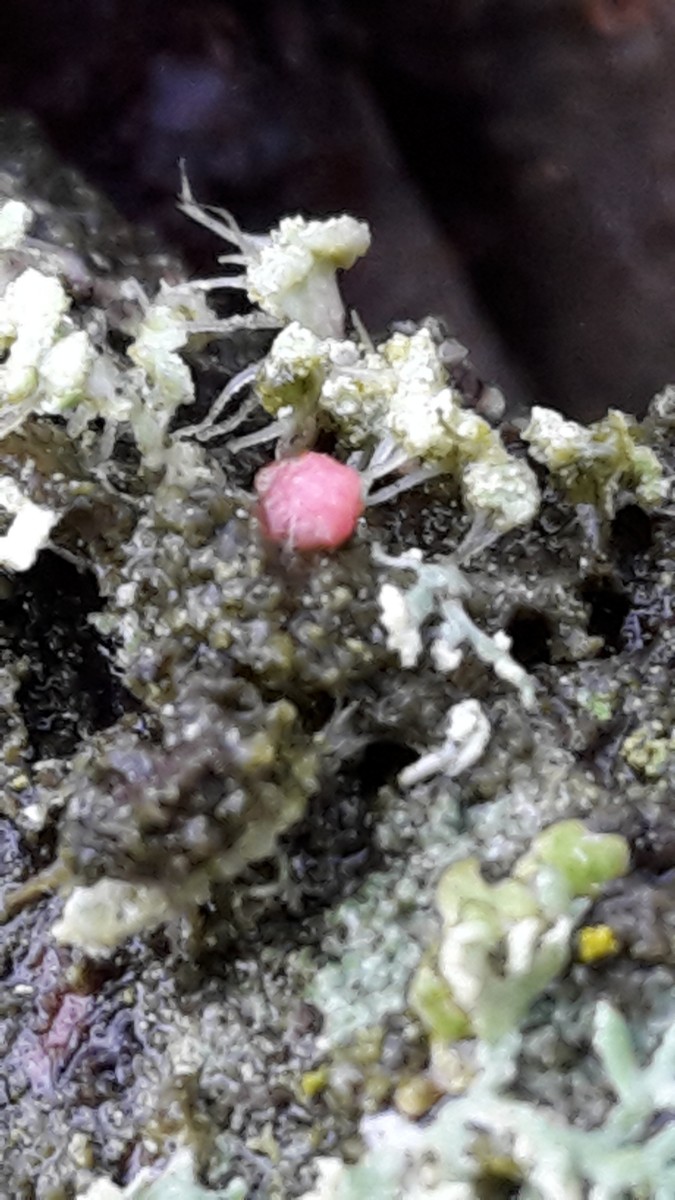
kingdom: Fungi
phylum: Ascomycota
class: Sordariomycetes
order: Hypocreales
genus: Illosporiopsis
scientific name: Illosporiopsis christiansenii
